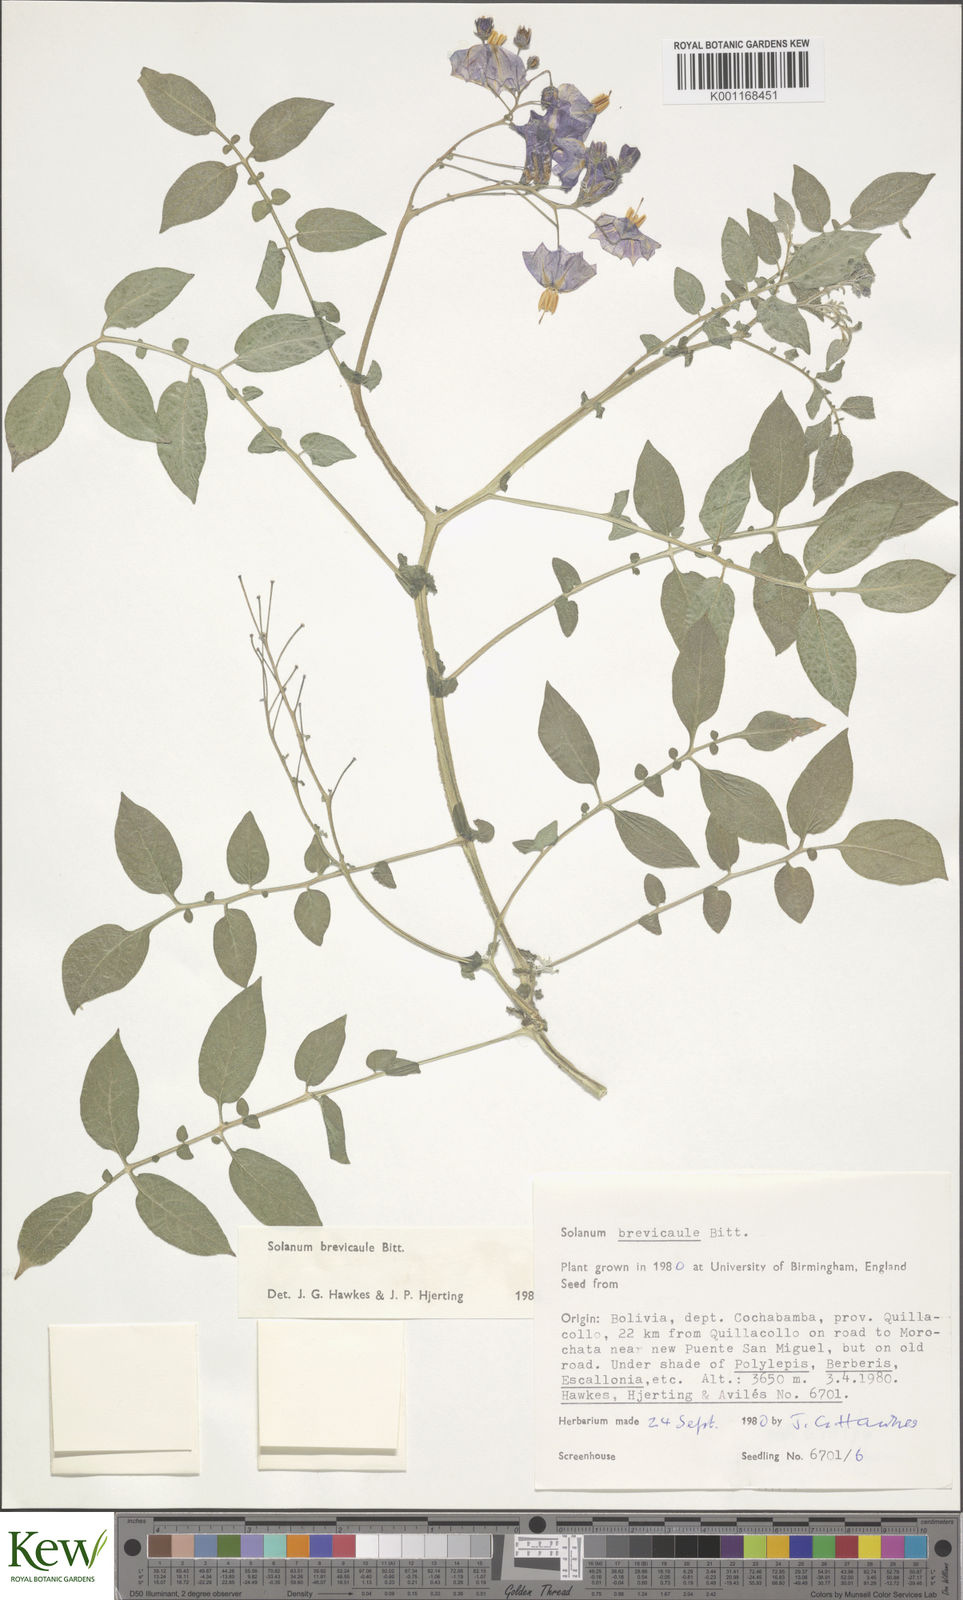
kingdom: Plantae
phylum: Tracheophyta
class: Magnoliopsida
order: Solanales
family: Solanaceae
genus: Solanum
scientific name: Solanum brevicaule
